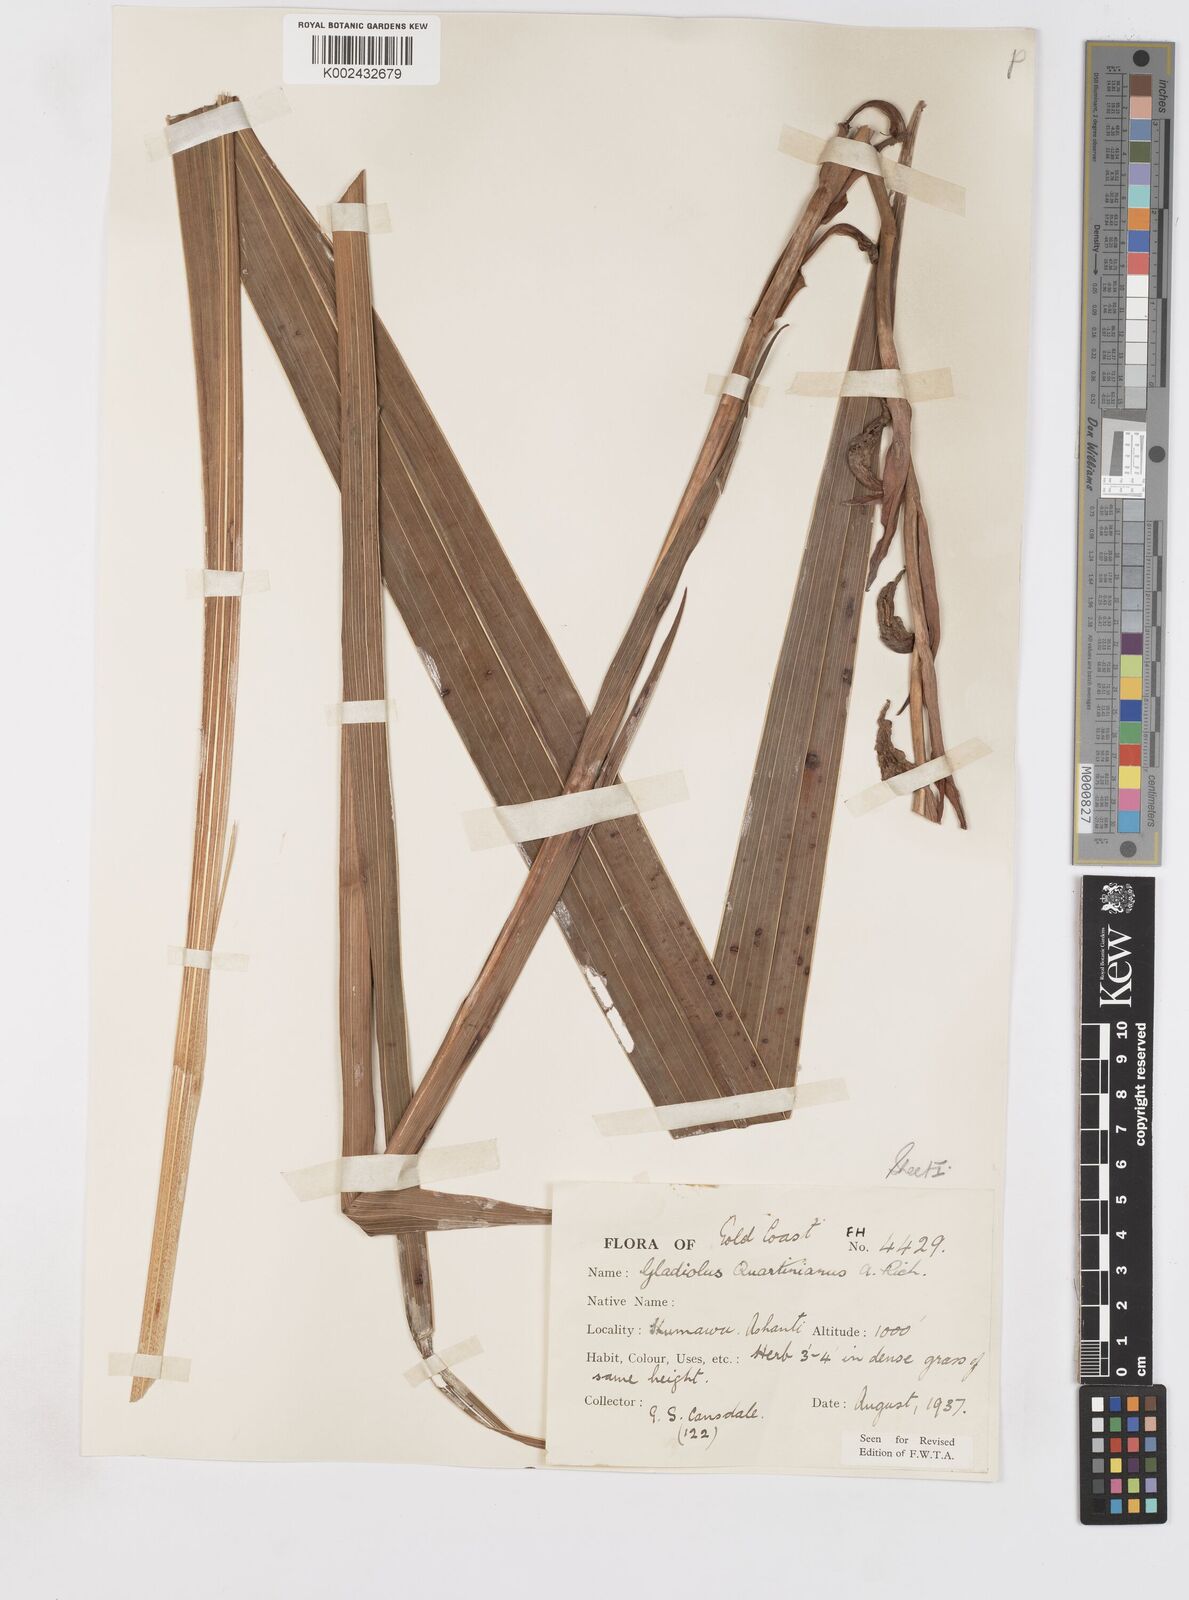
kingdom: Plantae
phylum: Tracheophyta
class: Liliopsida
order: Asparagales
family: Iridaceae
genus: Gladiolus
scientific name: Gladiolus dalenii
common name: Cornflag
